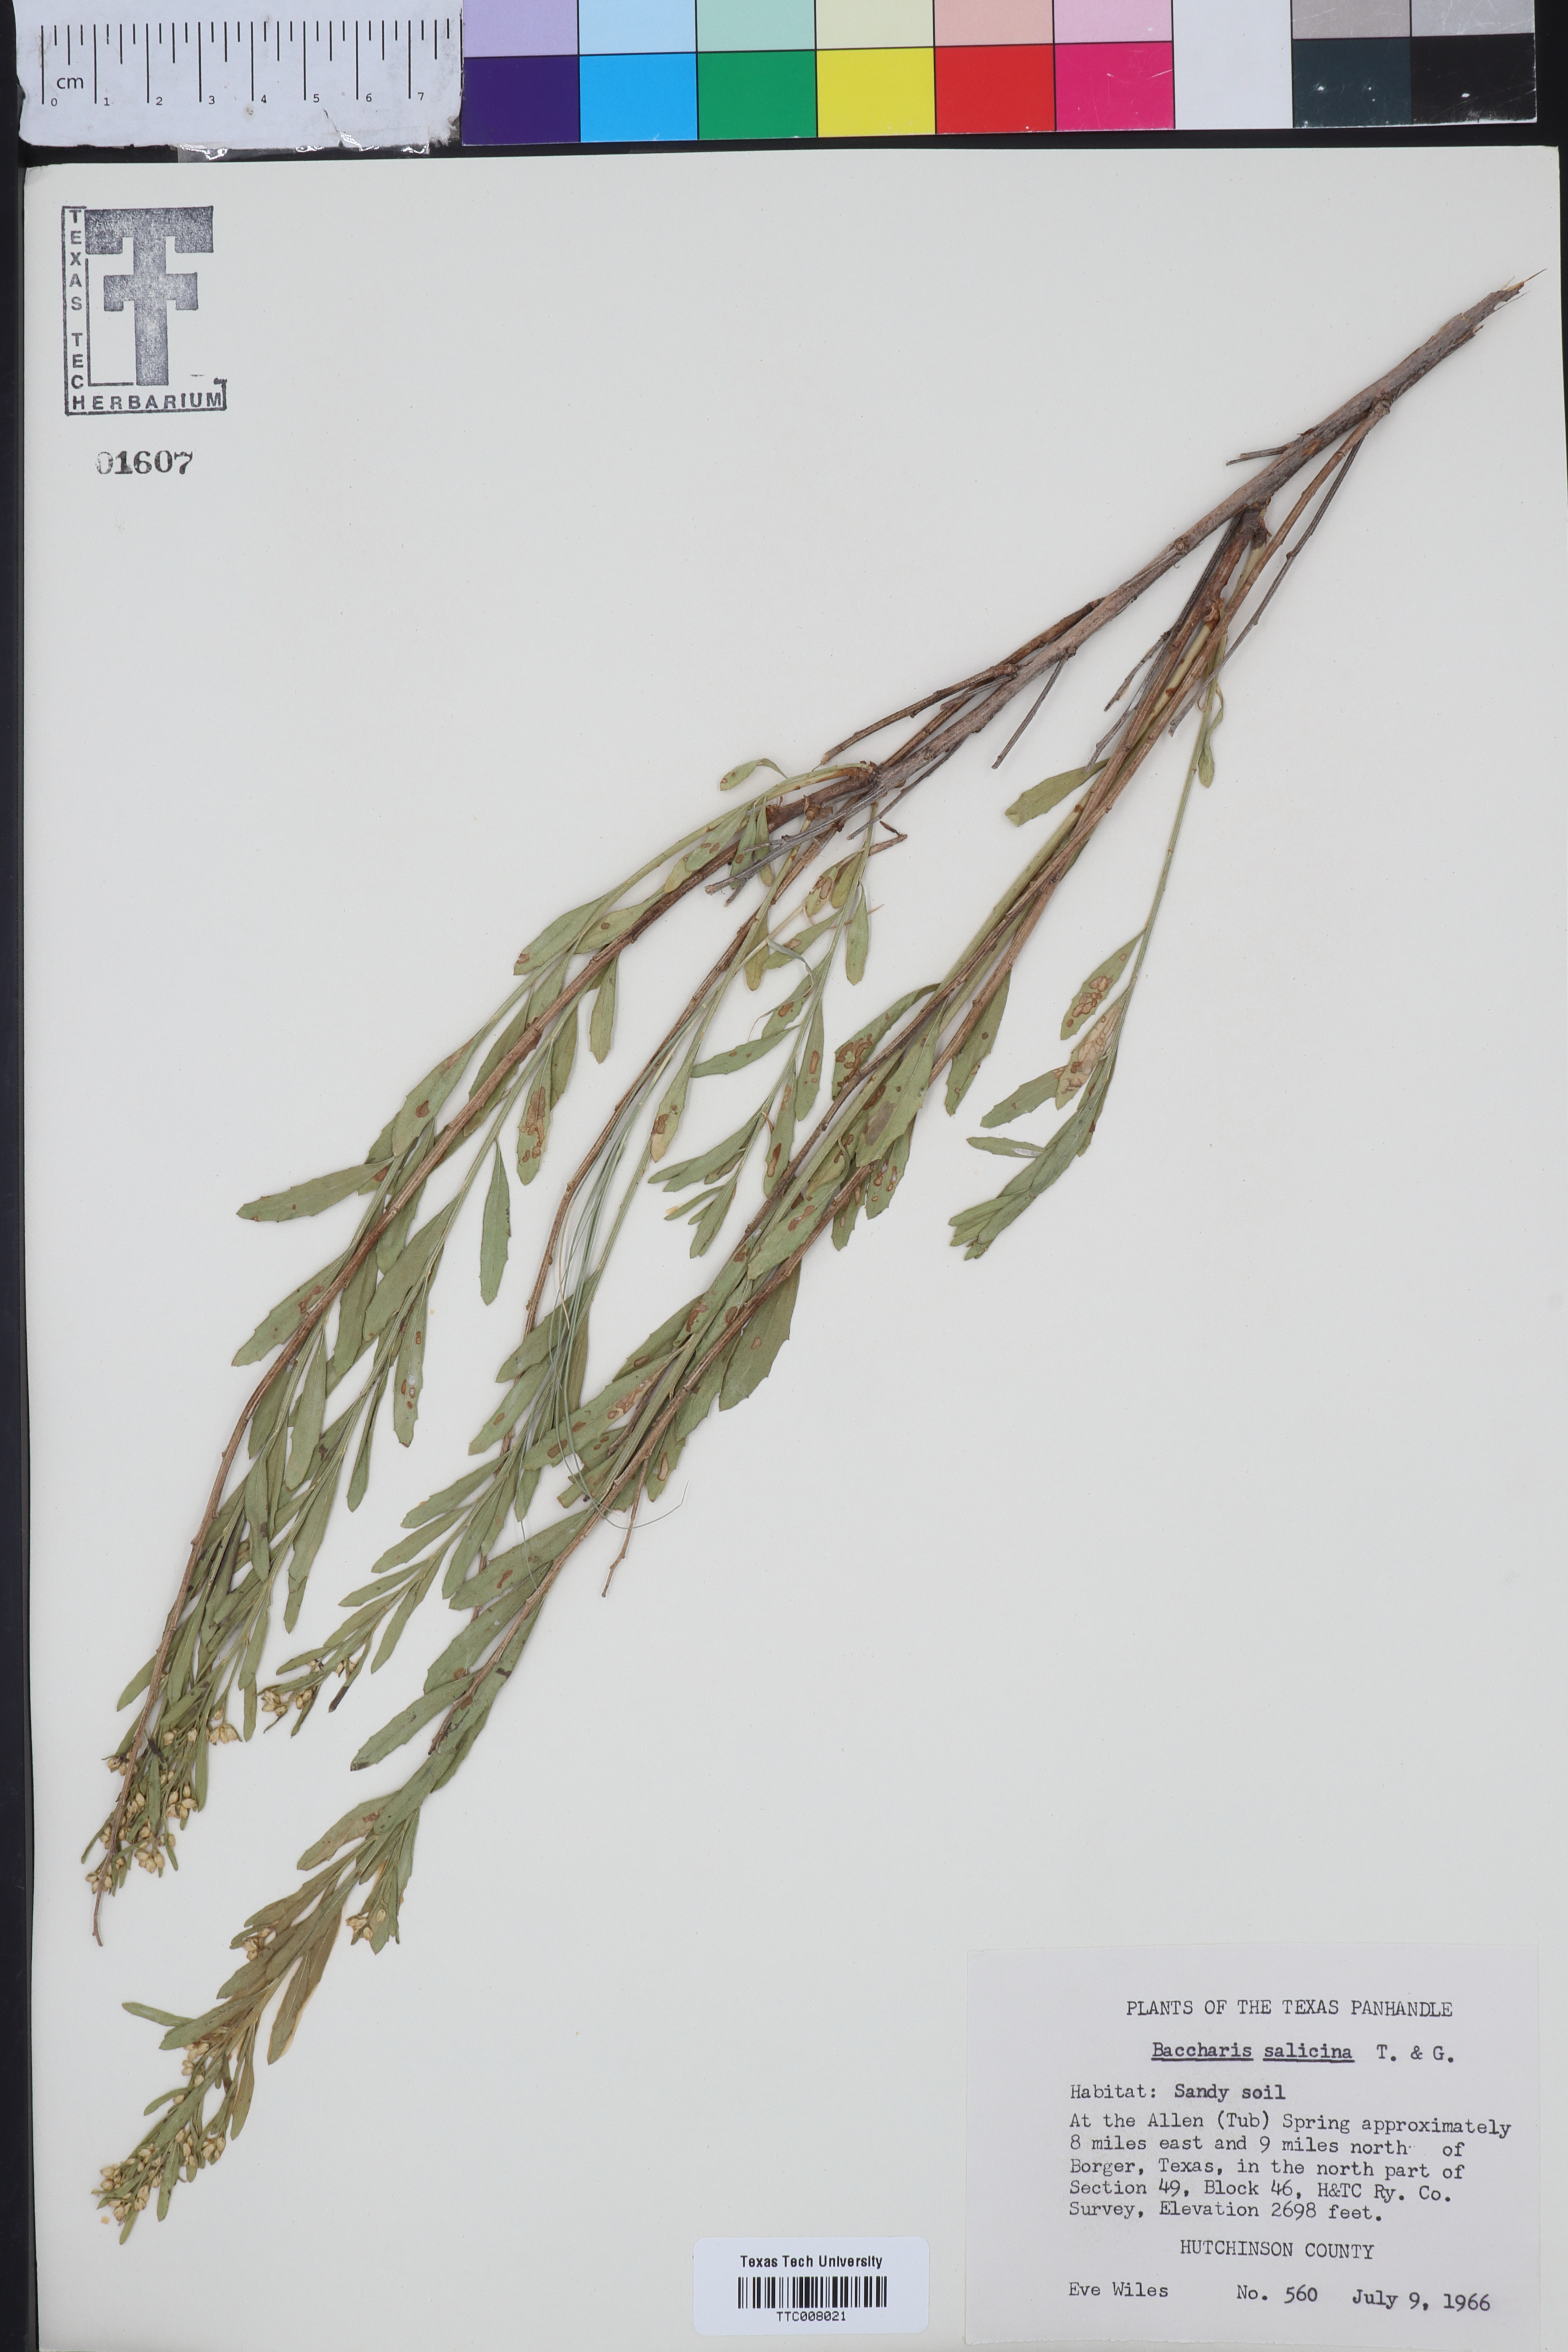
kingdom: Plantae
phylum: Tracheophyta
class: Magnoliopsida
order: Asterales
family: Asteraceae
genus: Baccharis
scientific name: Baccharis salicina
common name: Willow baccharis
